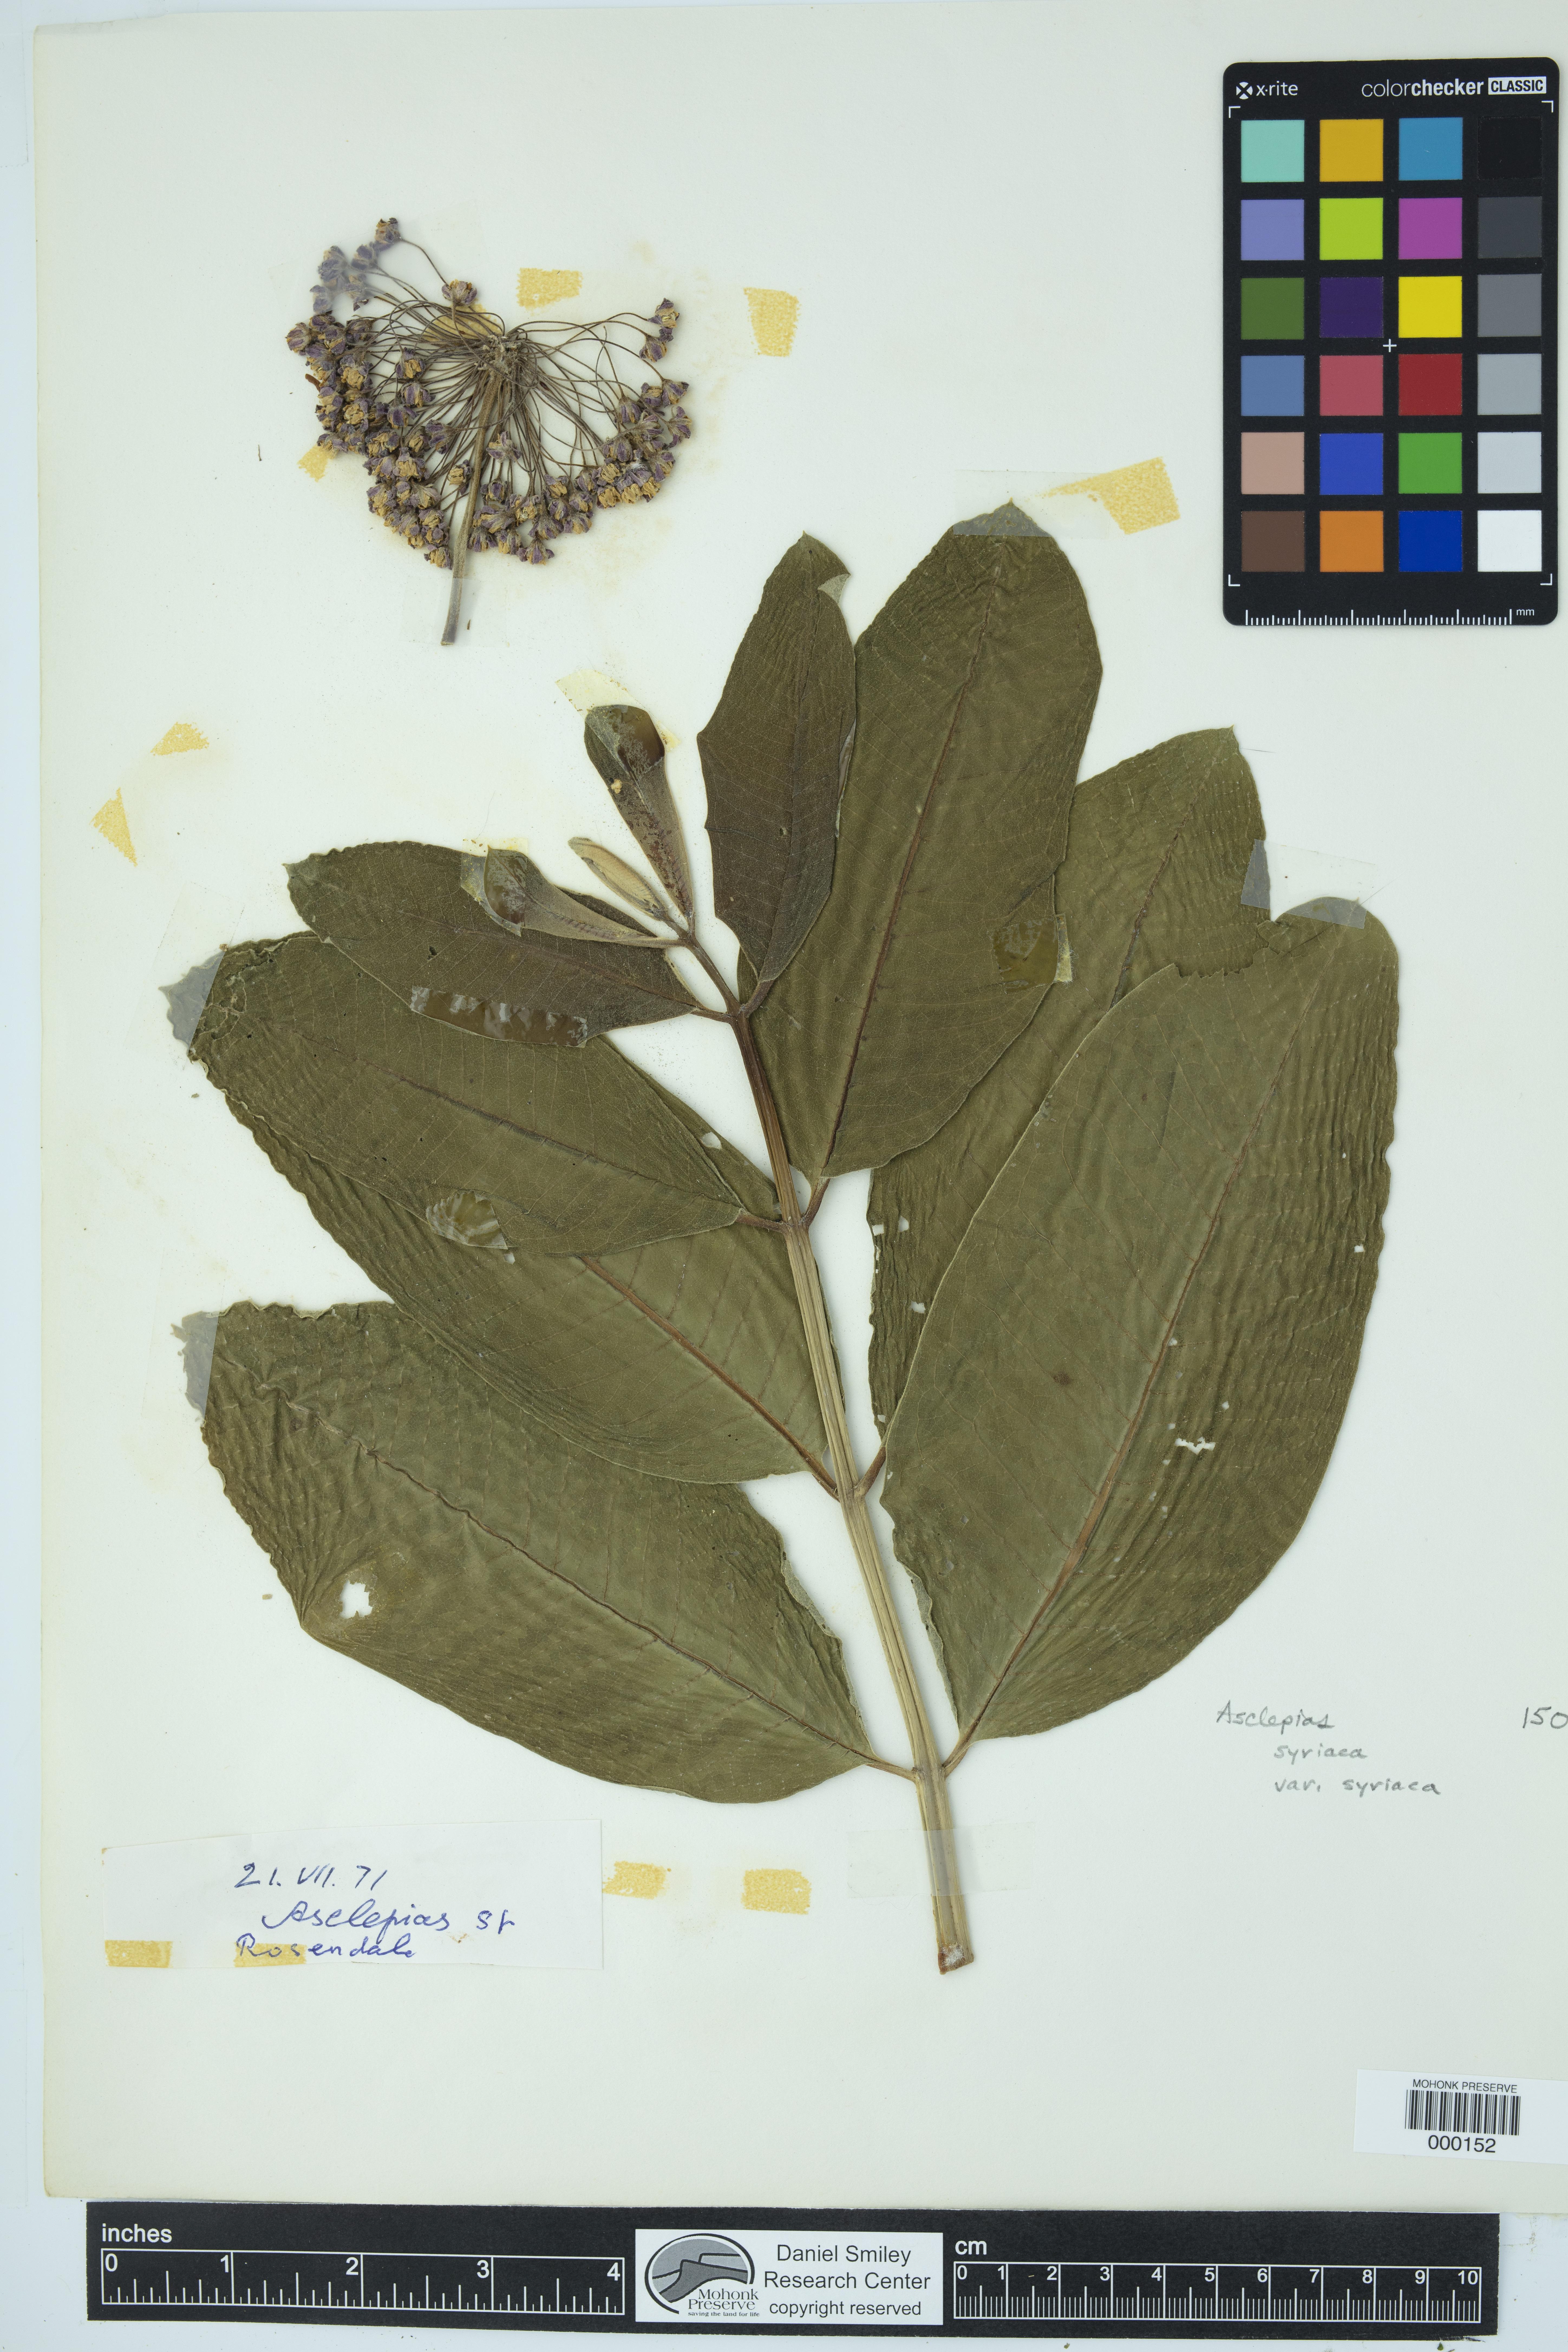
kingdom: Plantae
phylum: Tracheophyta
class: Magnoliopsida
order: Gentianales
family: Apocynaceae
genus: Asclepias
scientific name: Asclepias syriaca
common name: Common milkweed
